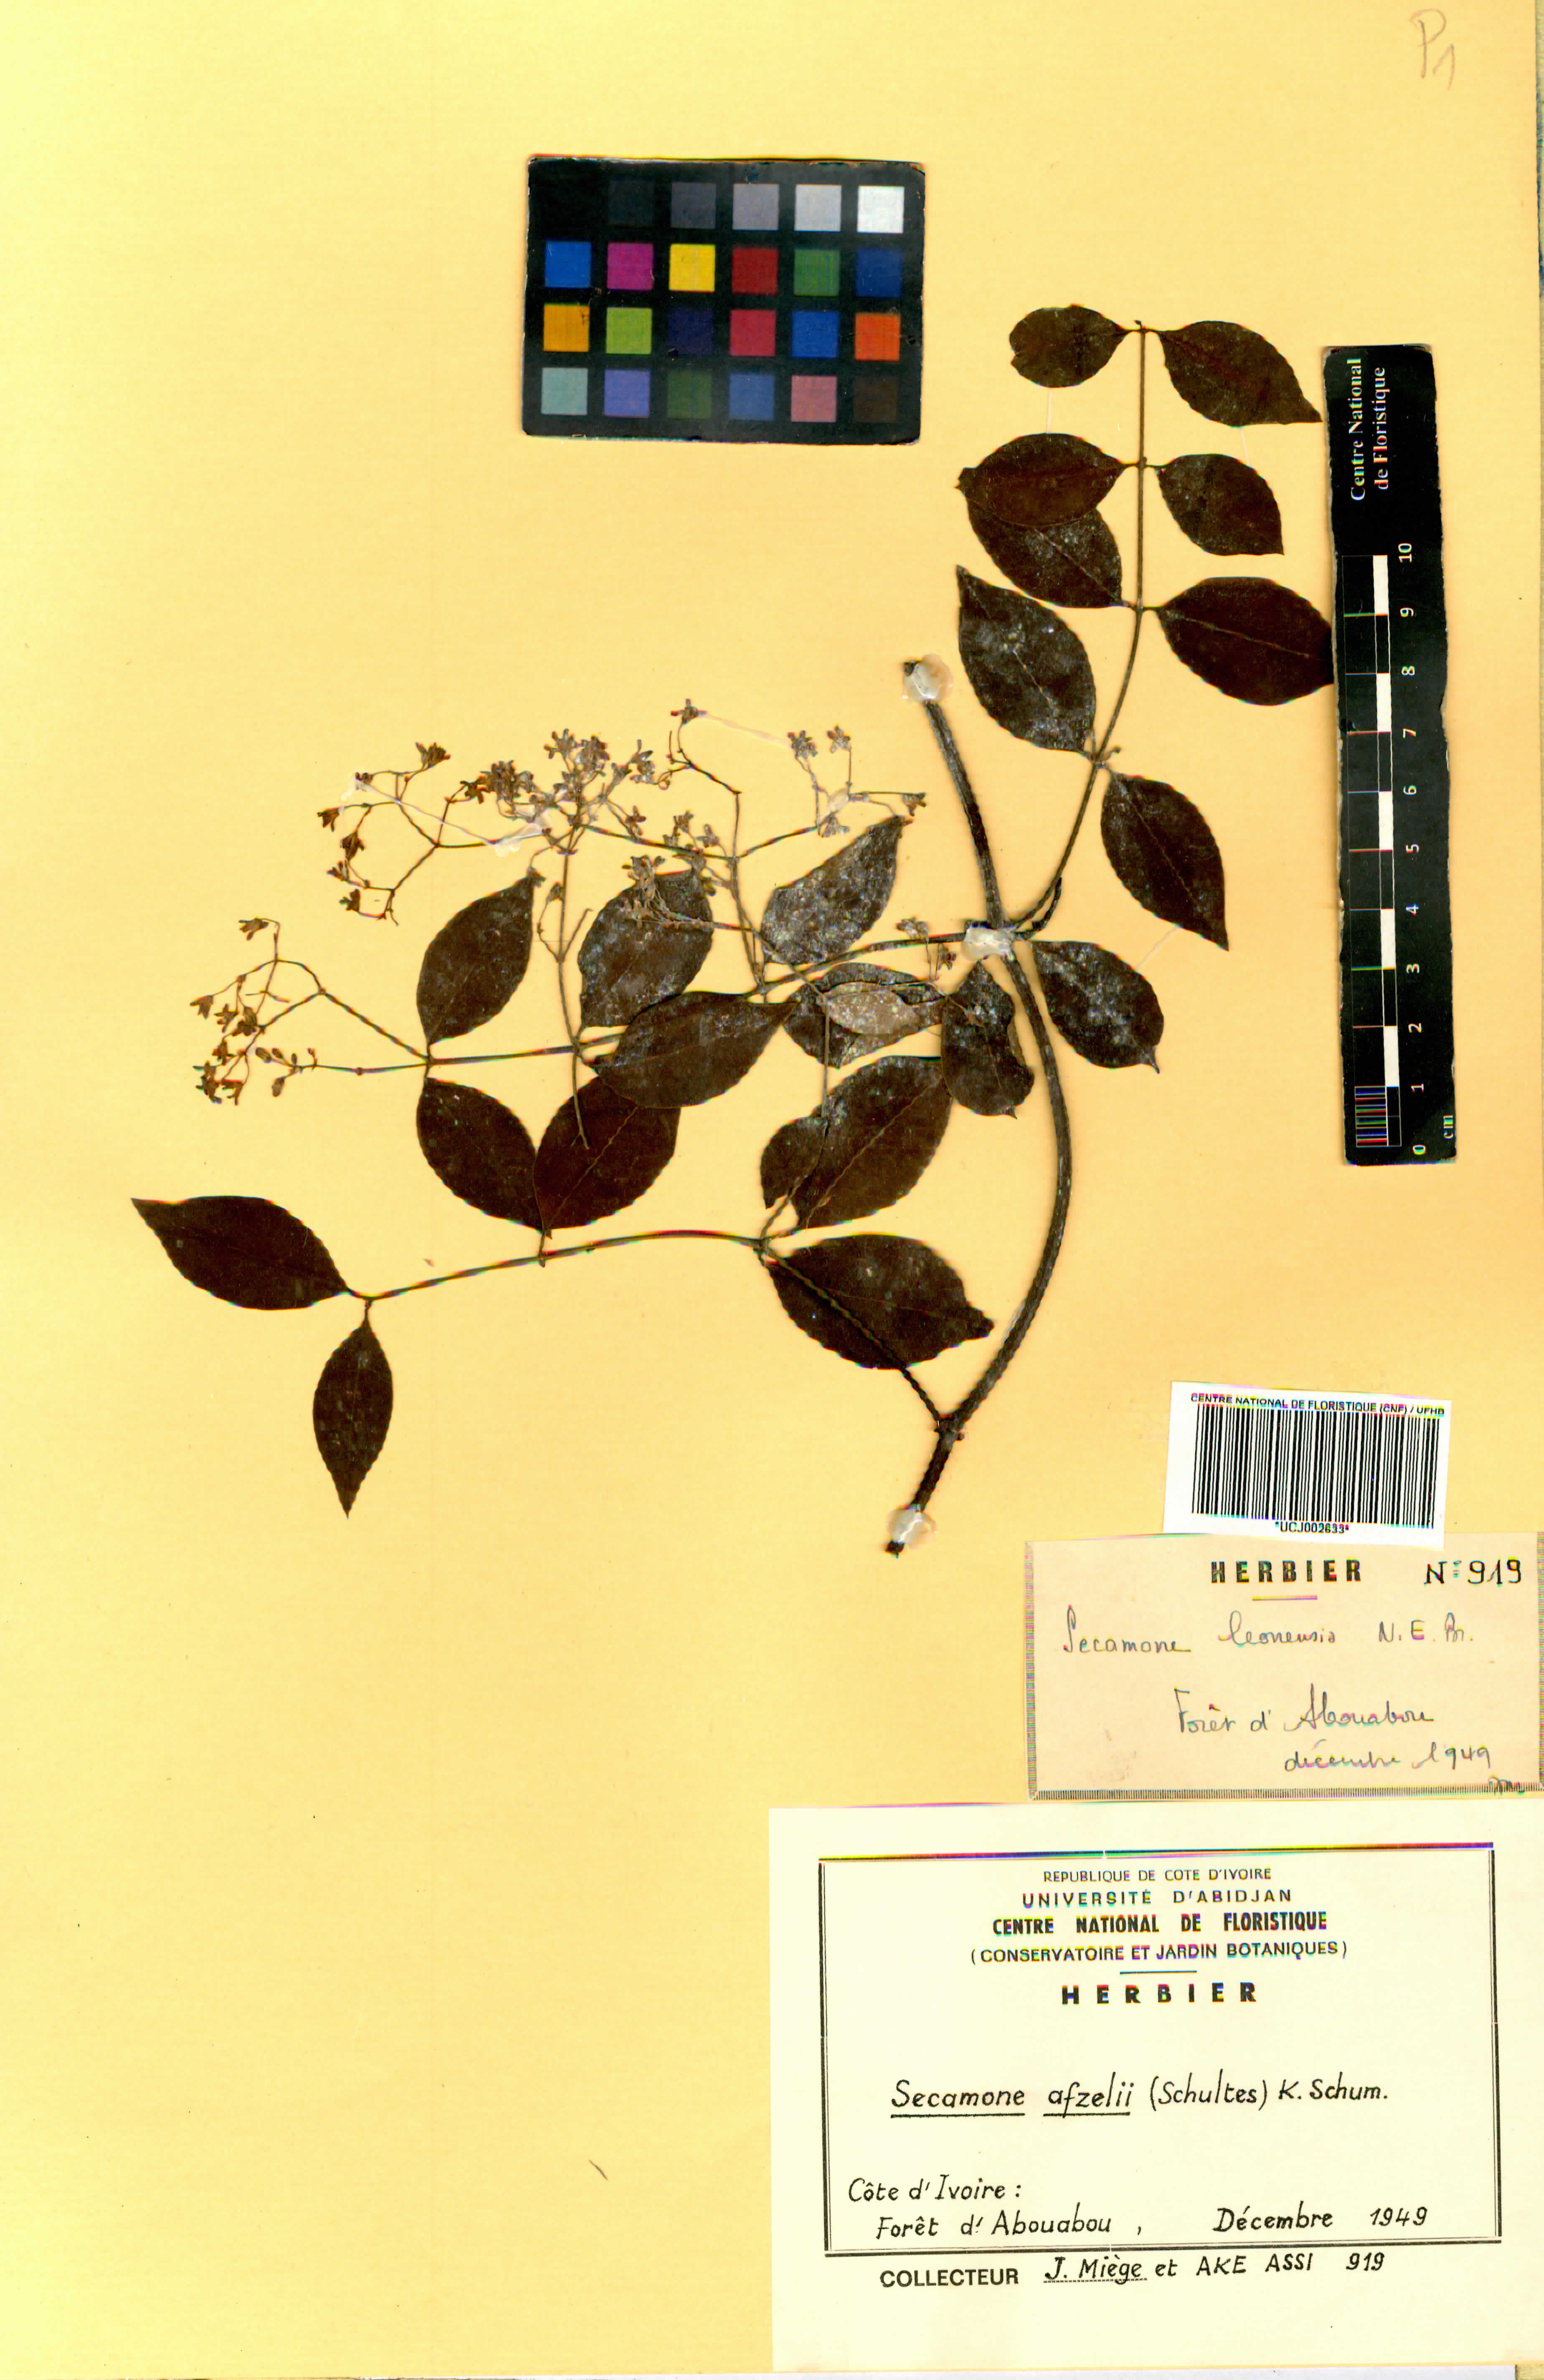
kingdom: Plantae
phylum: Tracheophyta
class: Magnoliopsida
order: Gentianales
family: Apocynaceae
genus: Secamone
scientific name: Secamone afzelii
